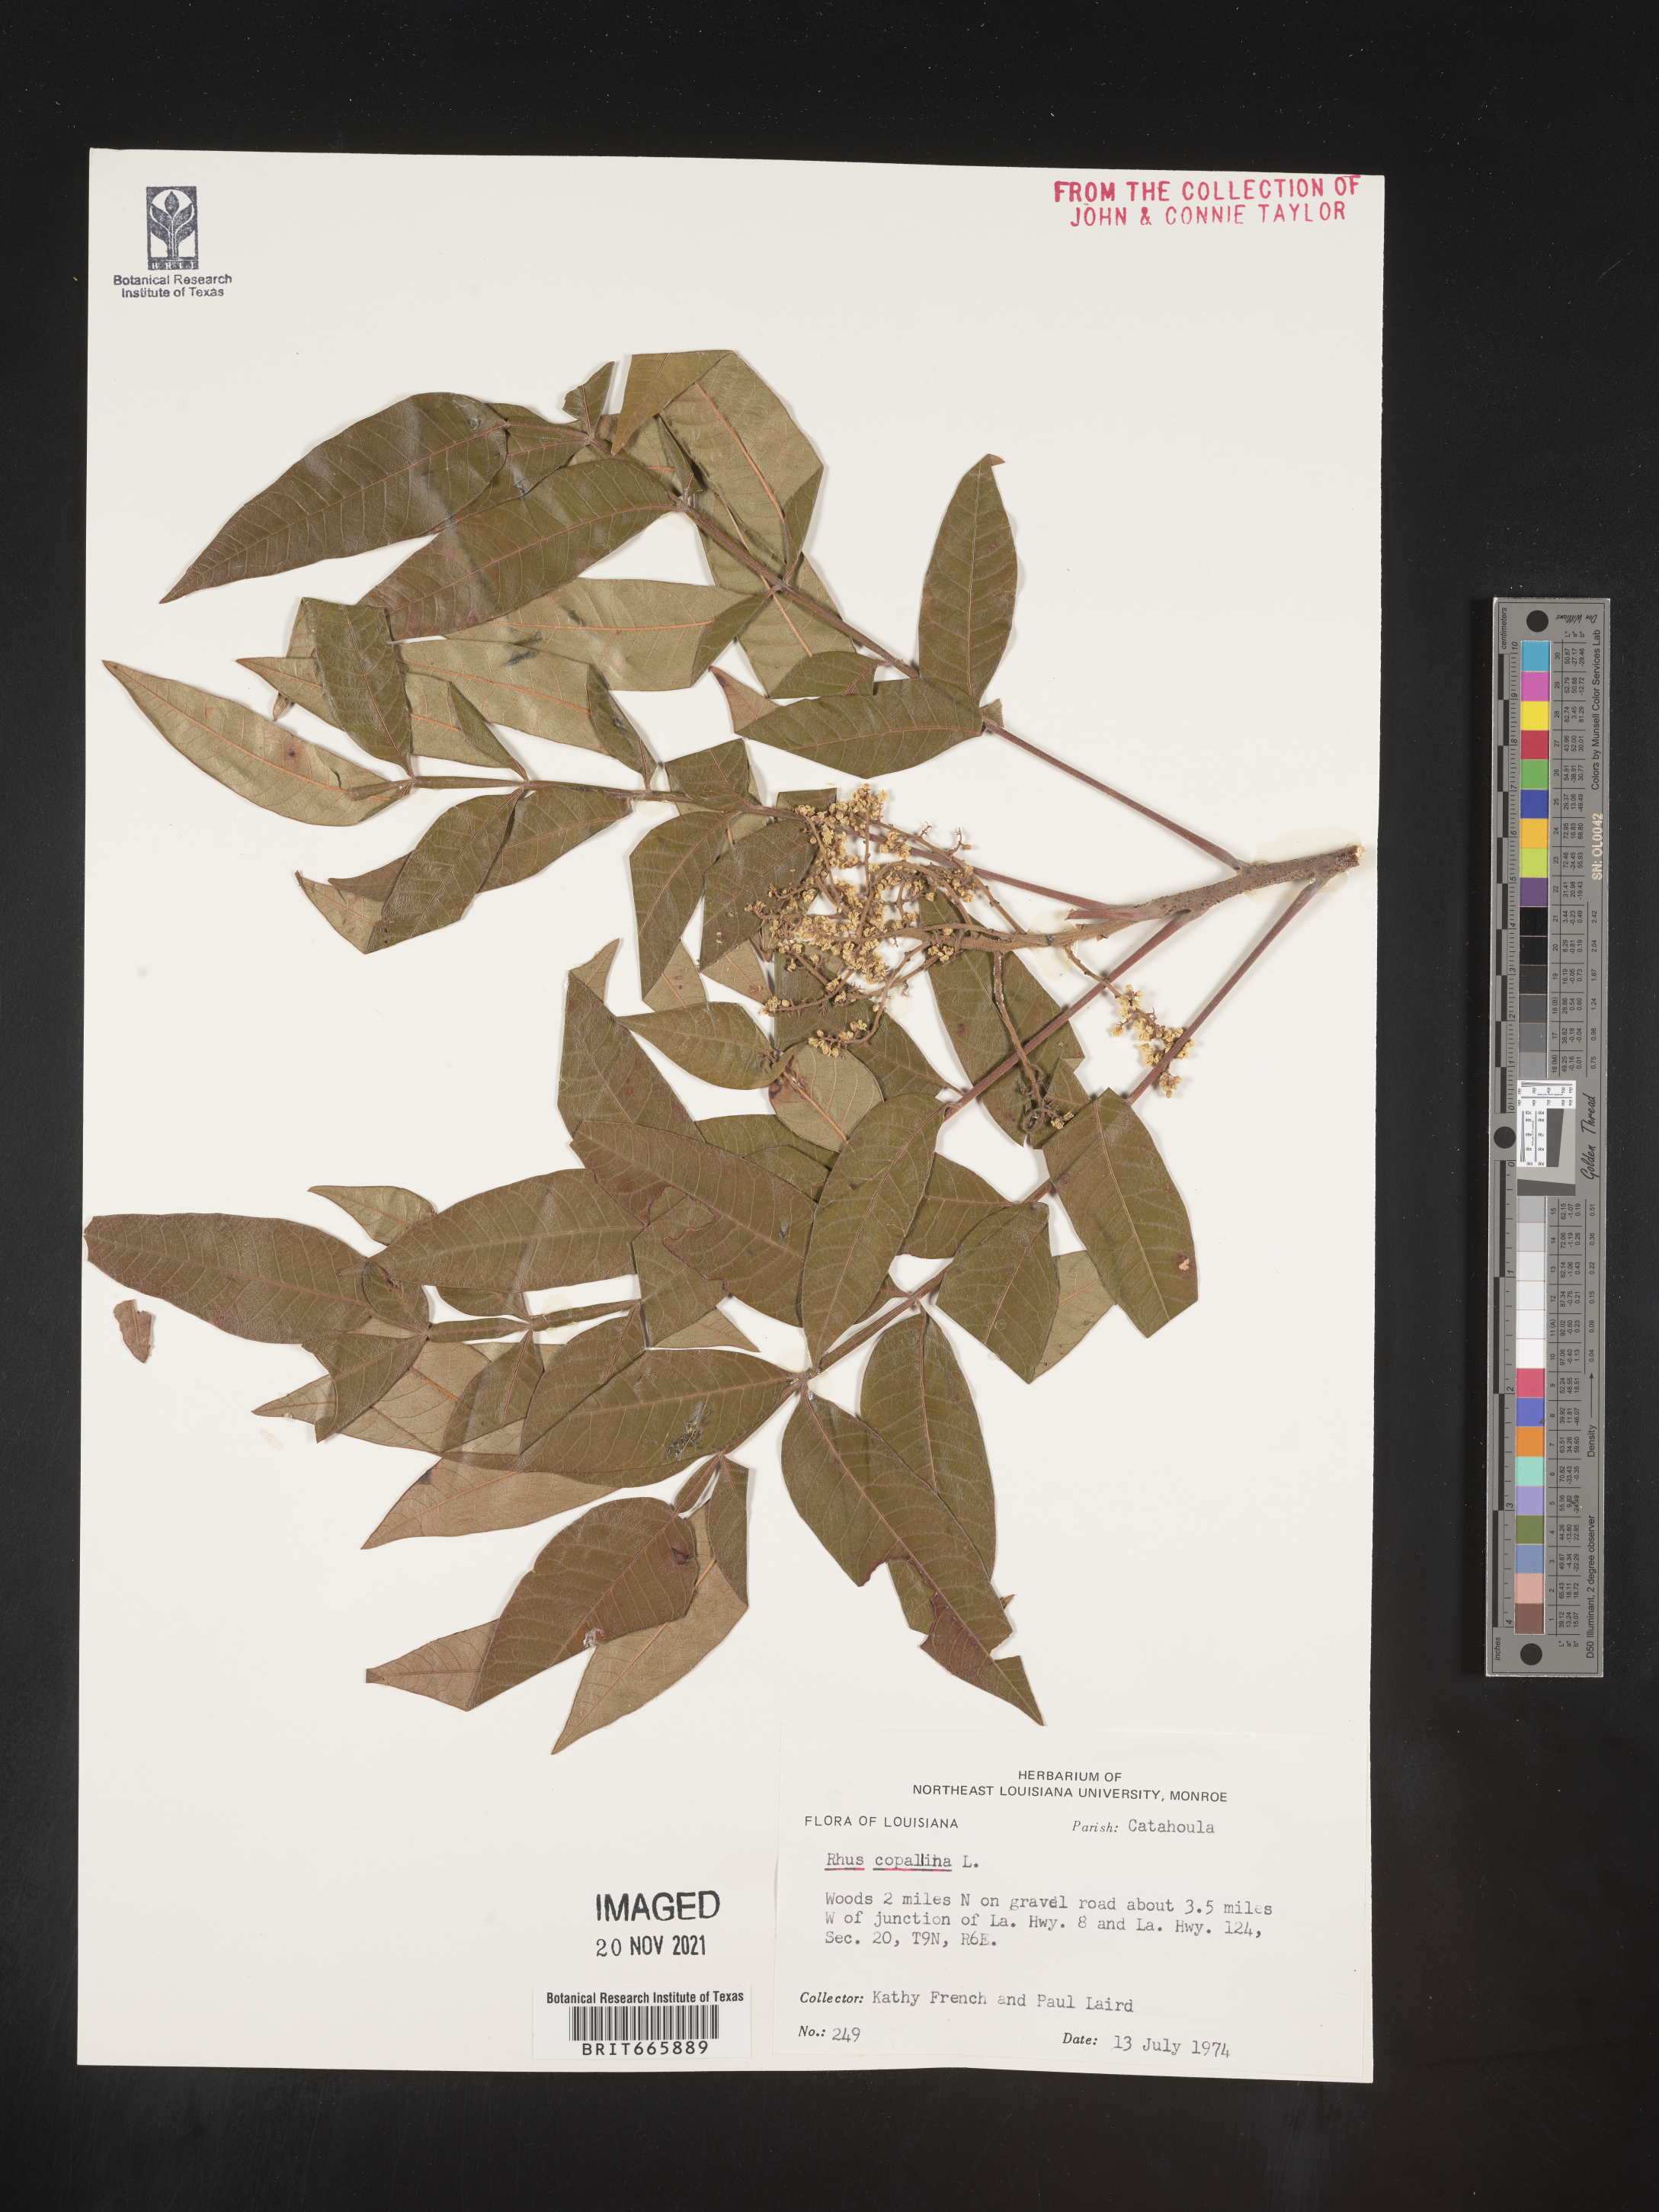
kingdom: Plantae
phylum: Tracheophyta
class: Magnoliopsida
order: Sapindales
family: Anacardiaceae
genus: Rhus
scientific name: Rhus copallina
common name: Shining sumac
